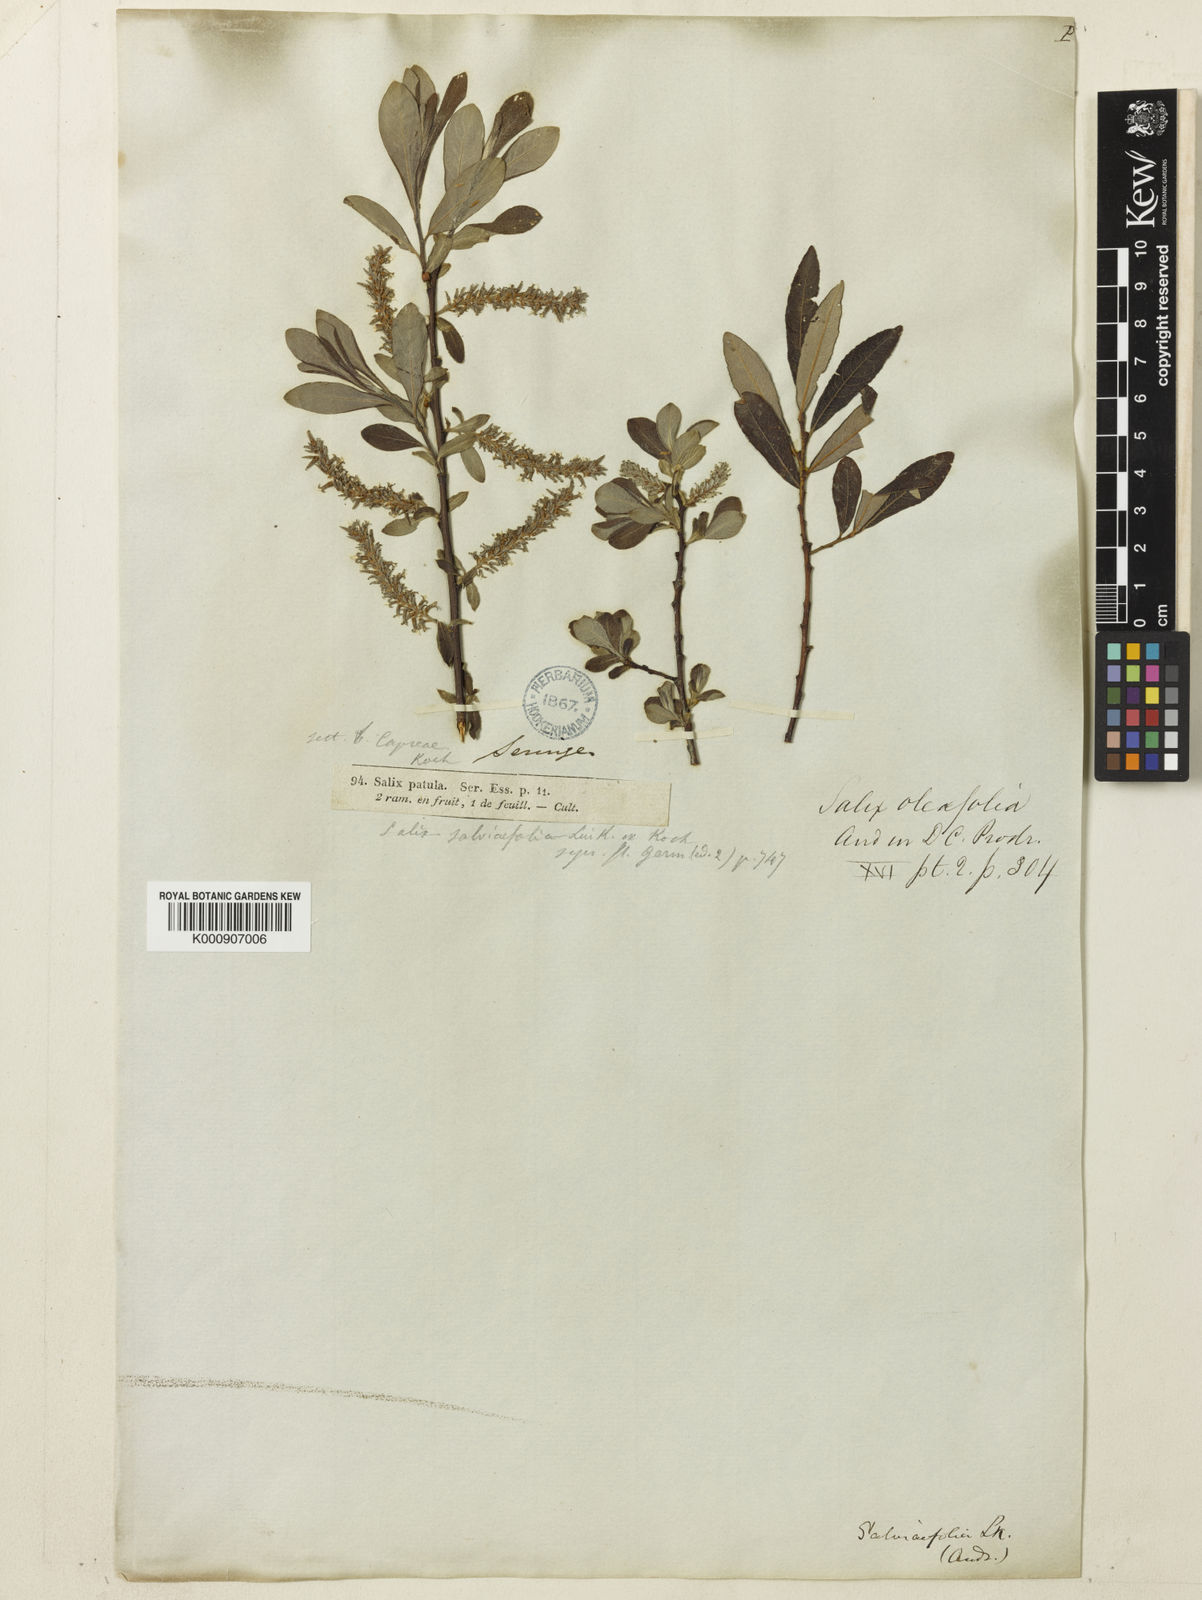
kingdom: Plantae
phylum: Tracheophyta
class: Magnoliopsida
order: Malpighiales
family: Salicaceae
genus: Salix
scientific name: Salix aurita
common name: Eared willow
